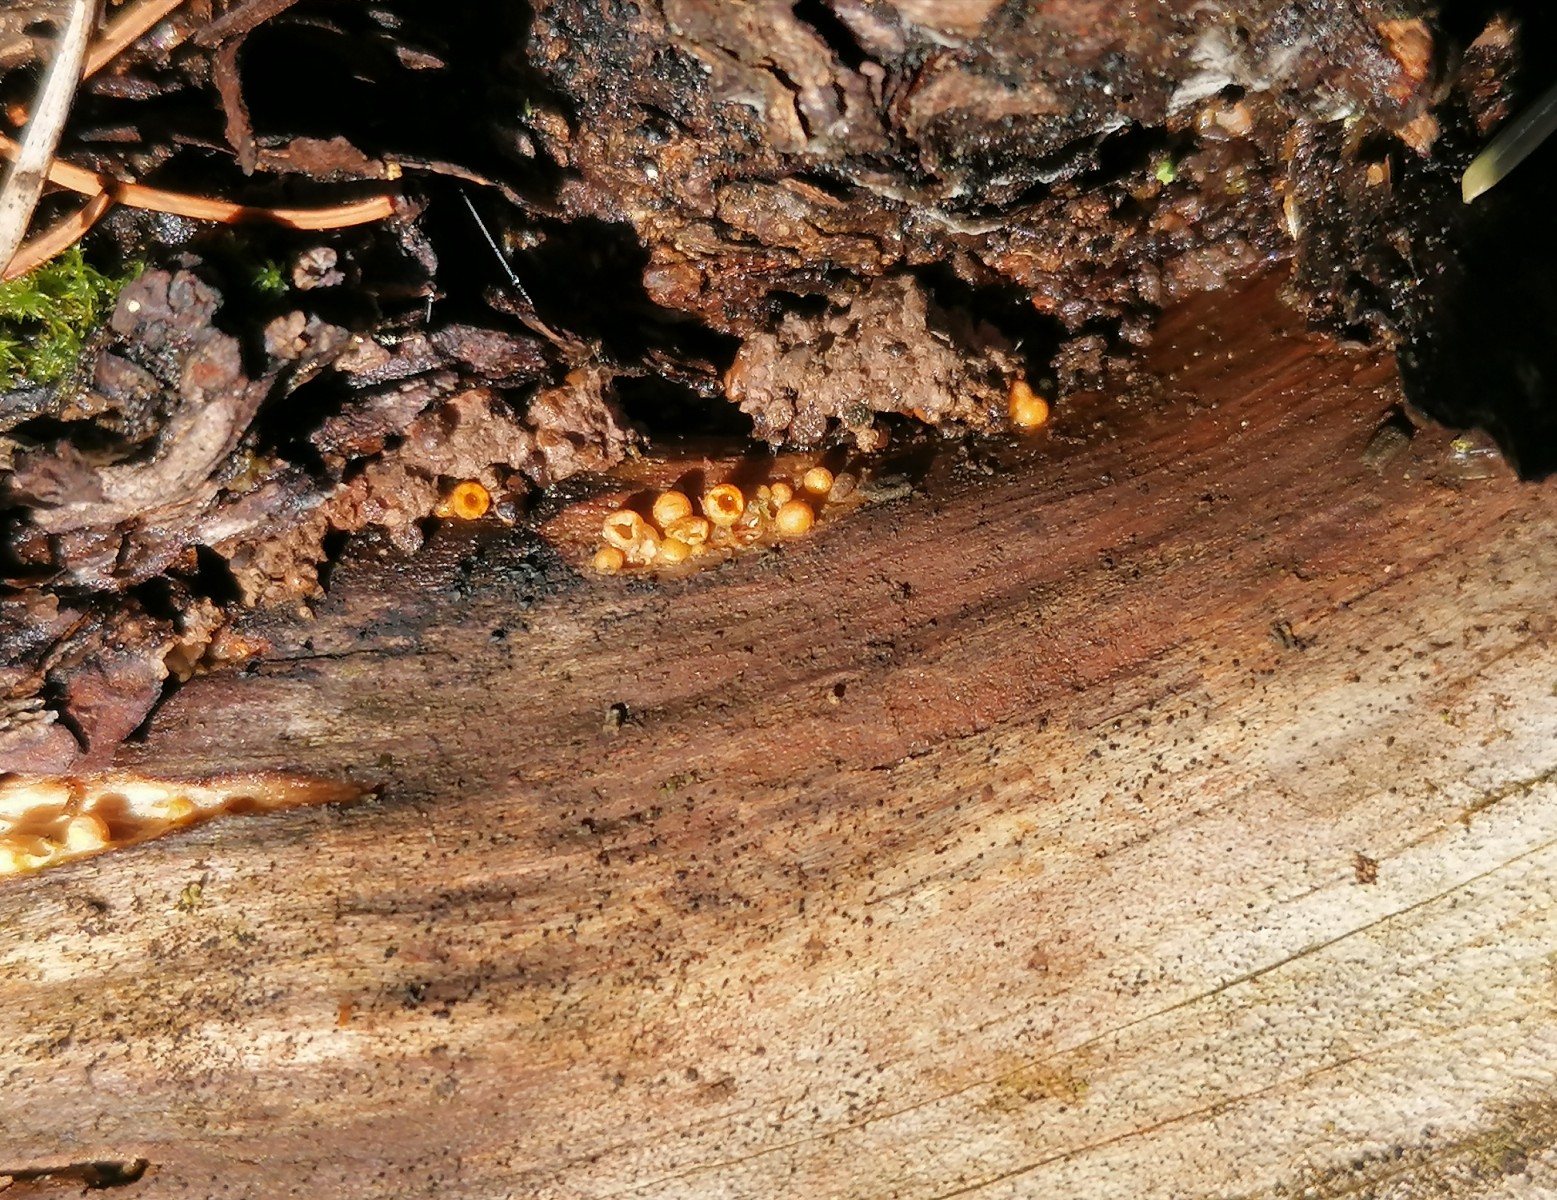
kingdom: Fungi
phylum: Basidiomycota
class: Agaricomycetes
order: Geastrales
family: Geastraceae
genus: Sphaerobolus
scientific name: Sphaerobolus stellatus
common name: bombekaster
